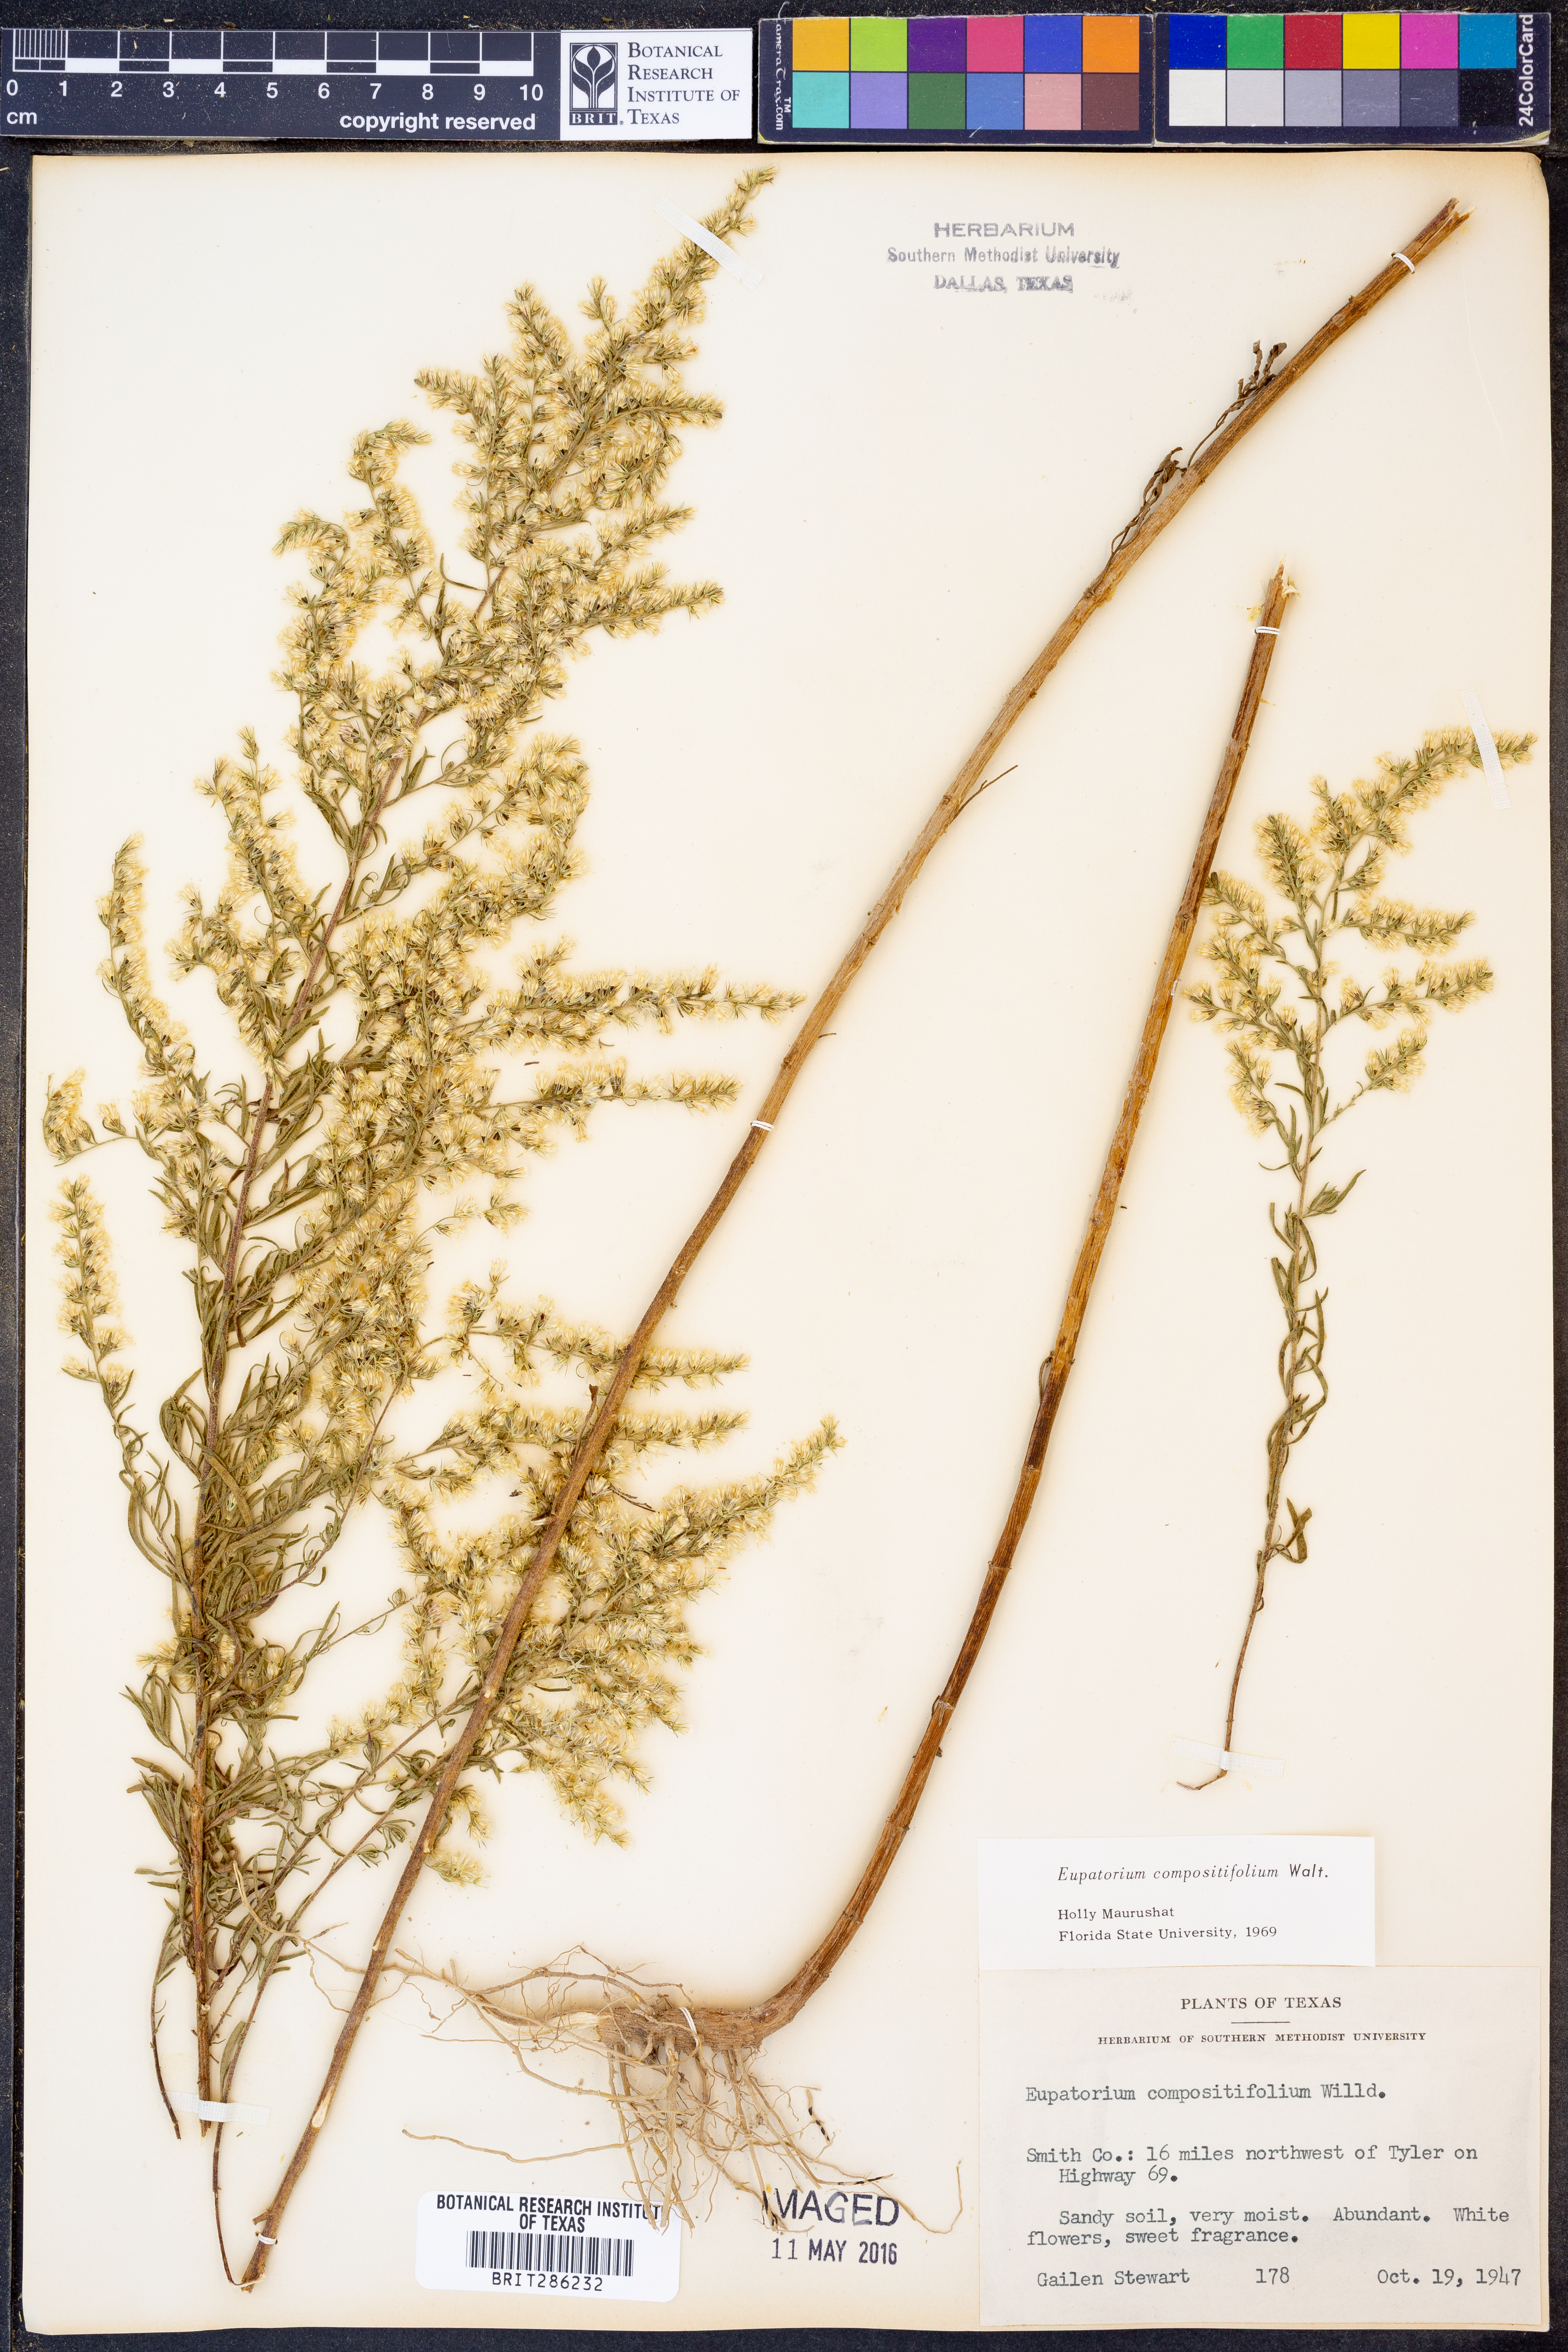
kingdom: Plantae
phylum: Tracheophyta
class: Magnoliopsida
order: Asterales
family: Asteraceae
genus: Eupatorium
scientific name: Eupatorium compositifolium
